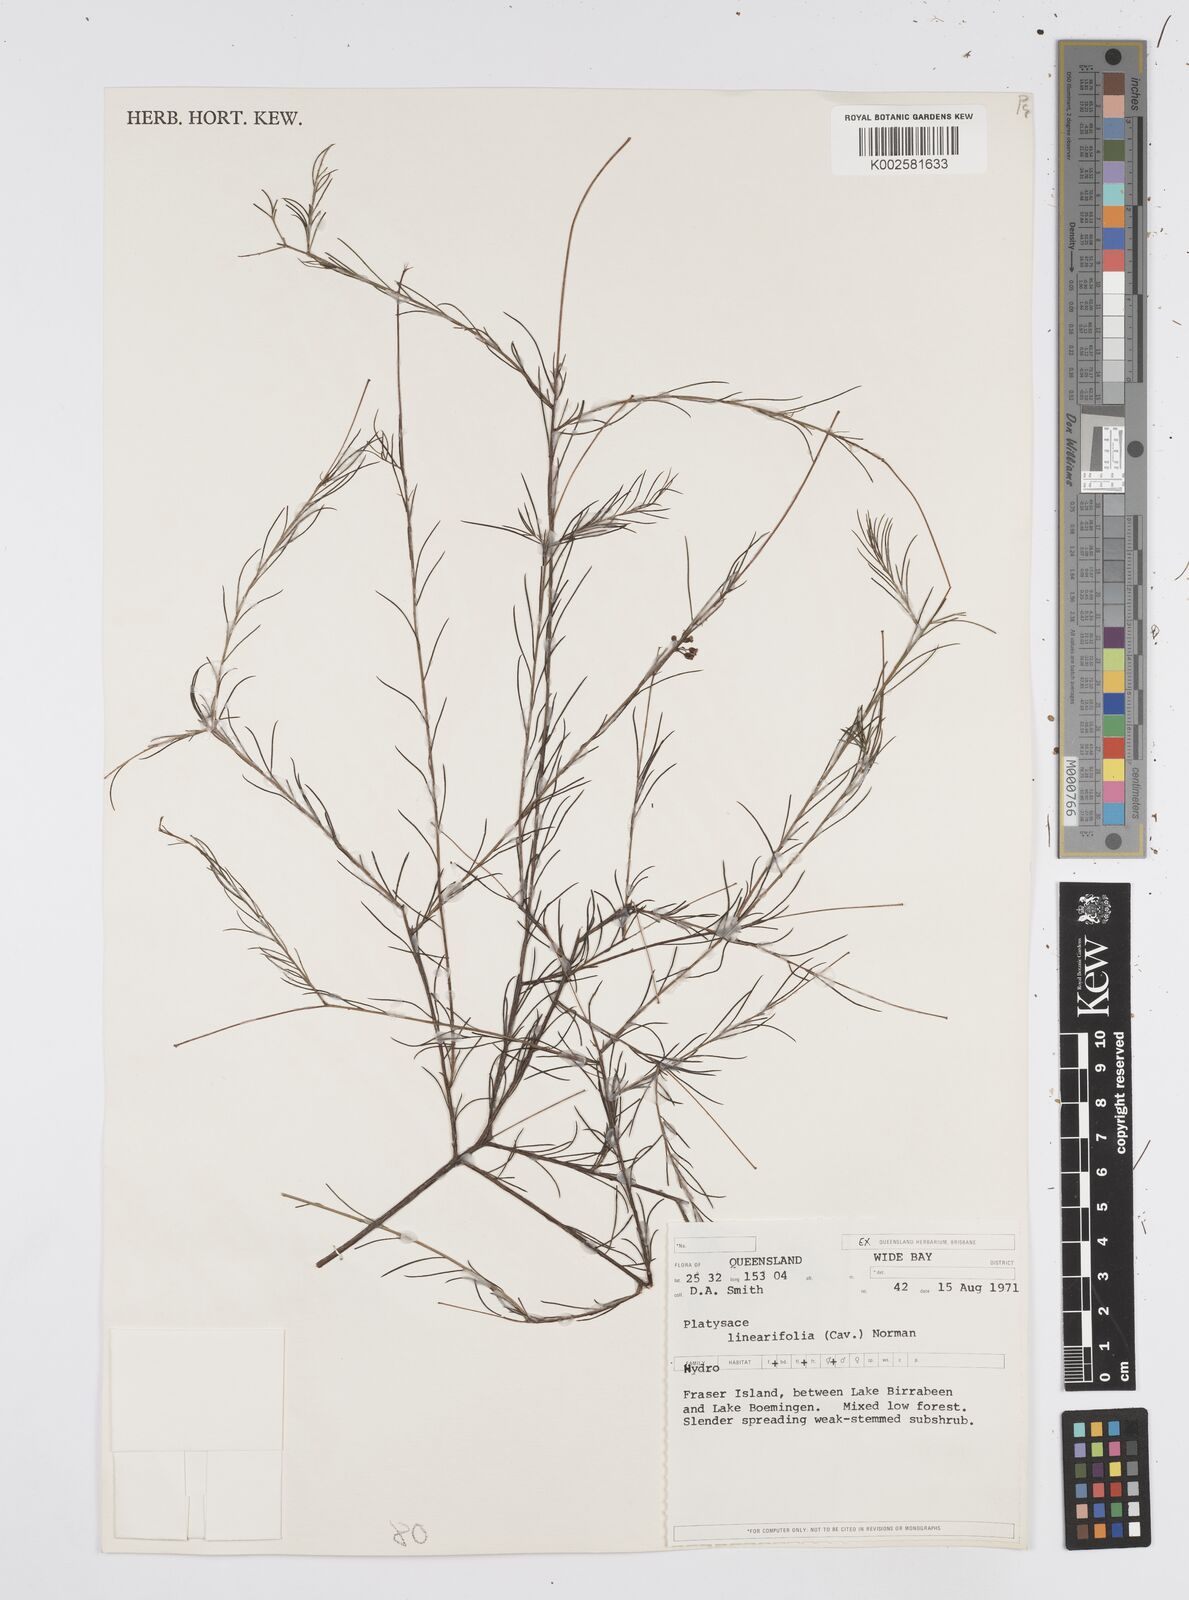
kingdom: Plantae
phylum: Tracheophyta
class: Magnoliopsida
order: Apiales
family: Apiaceae
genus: Platysace
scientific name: Platysace linearifolia
